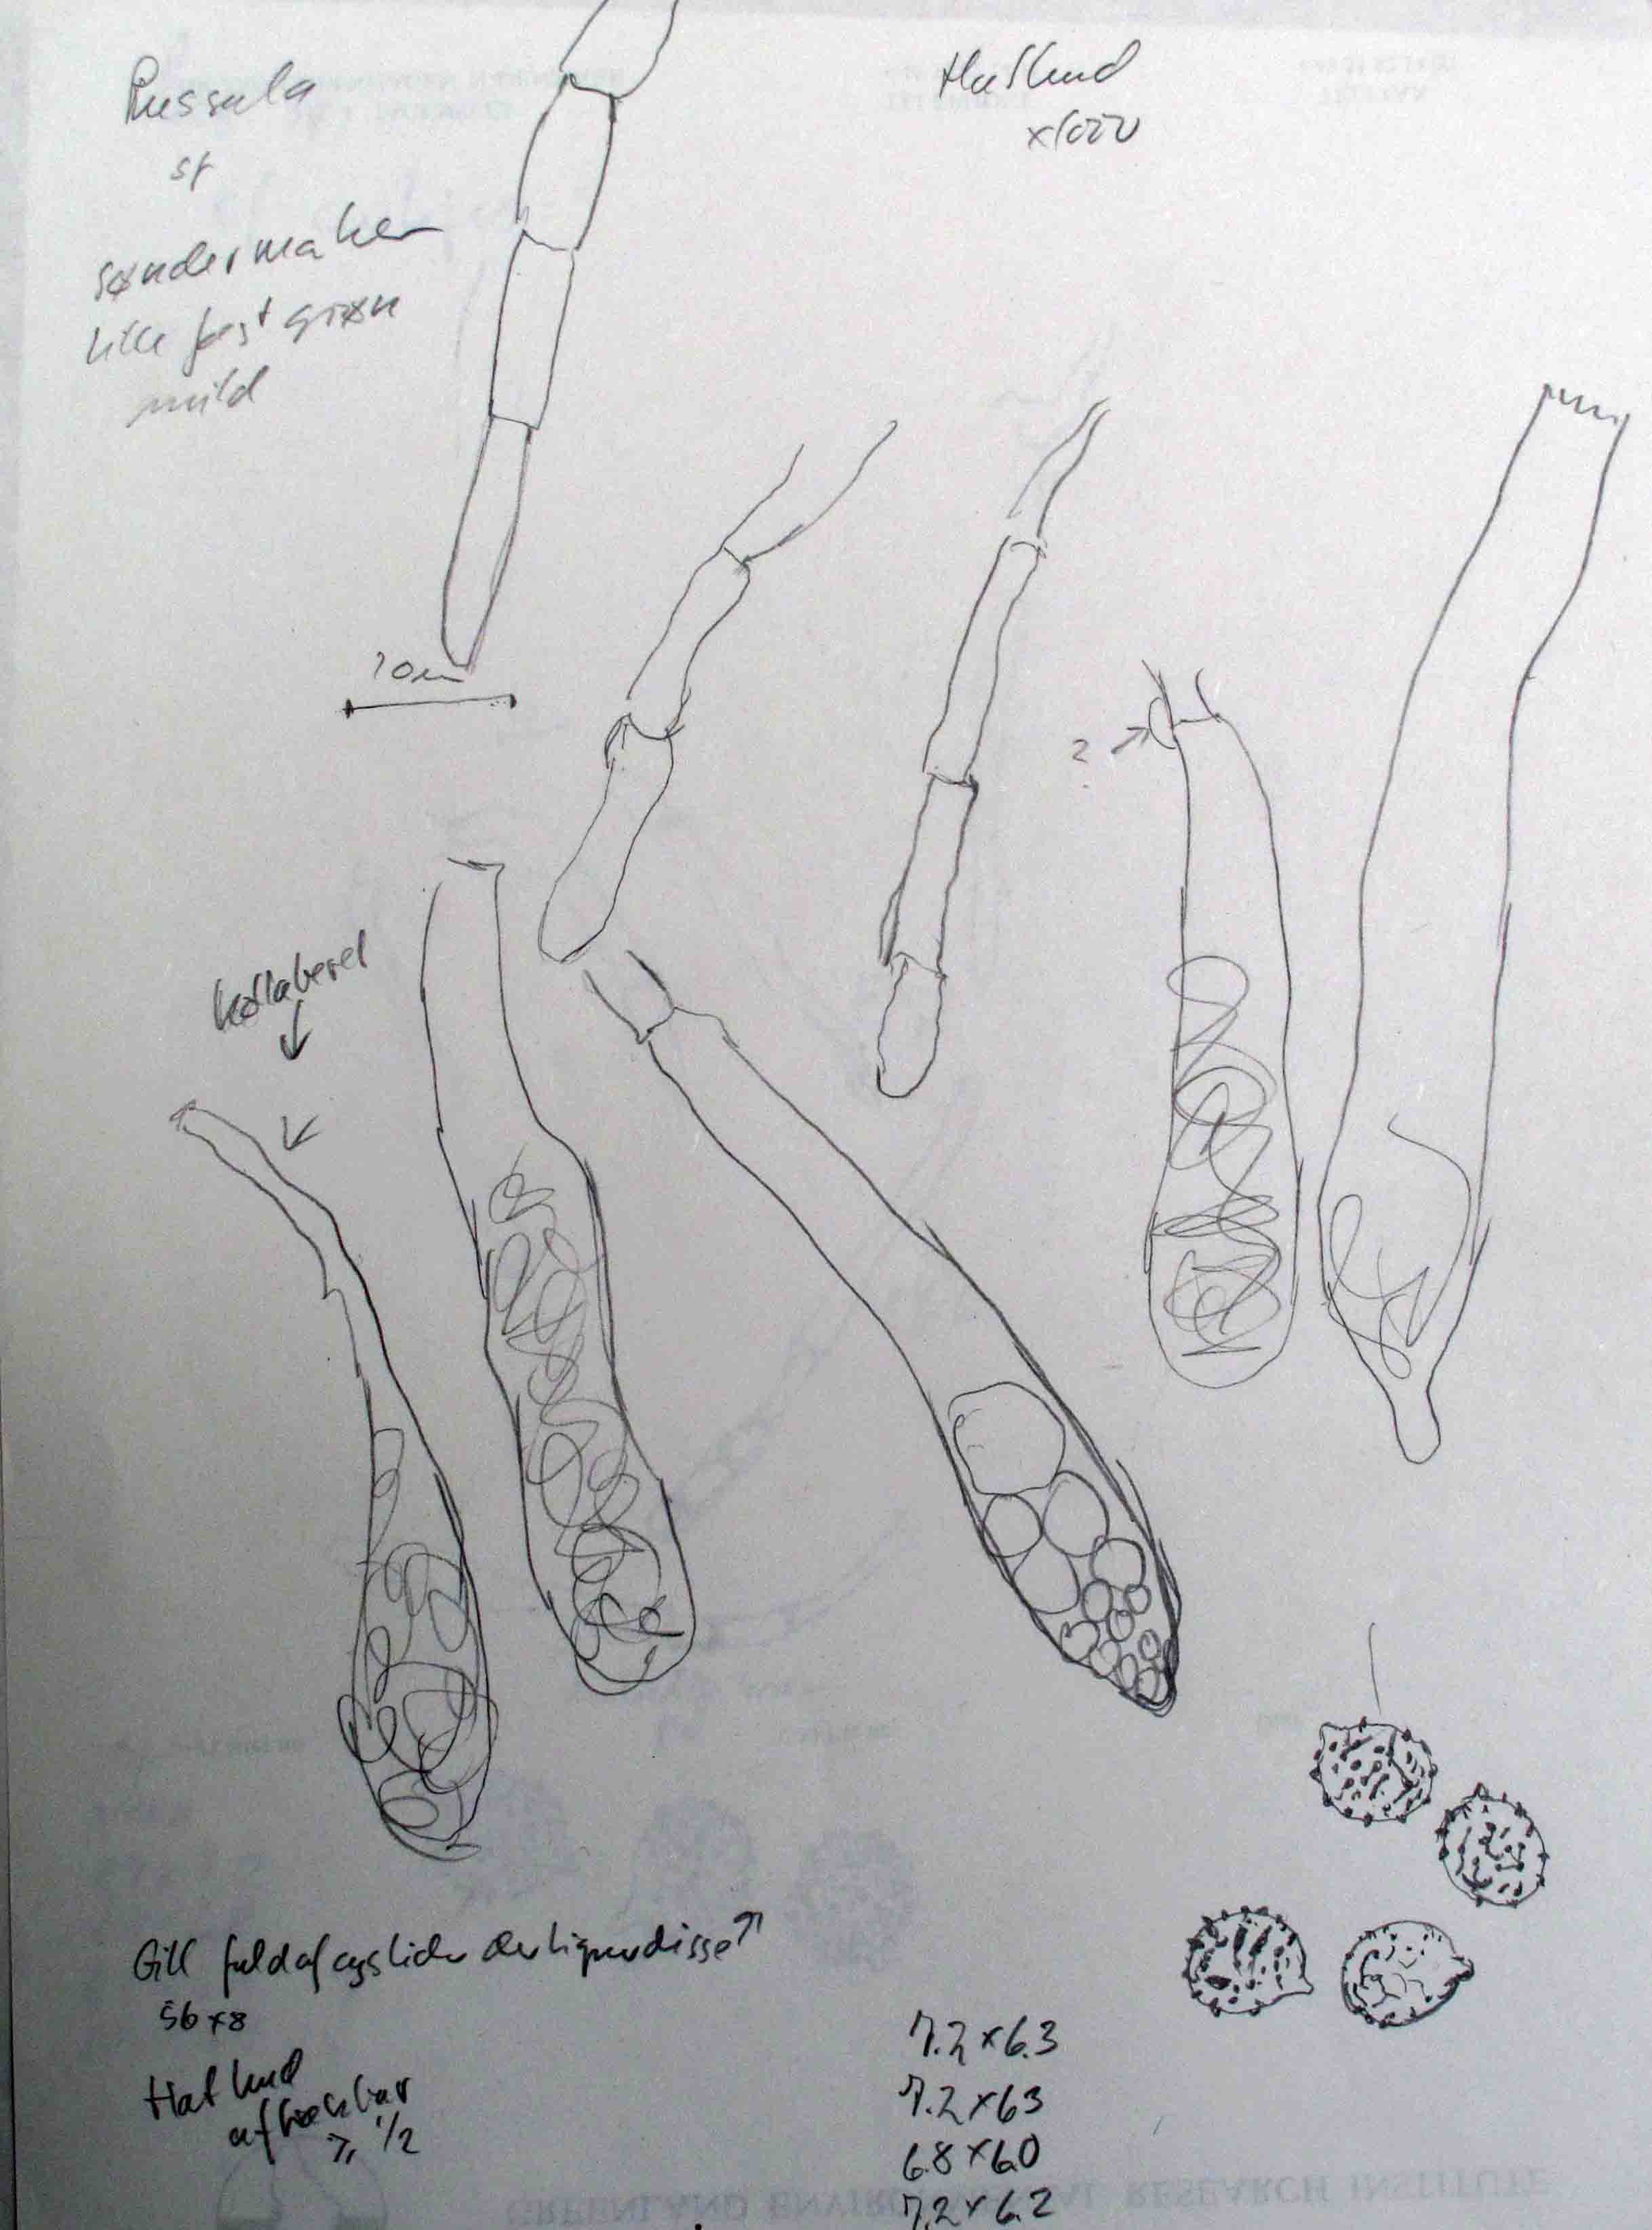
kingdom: Fungi
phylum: Basidiomycota
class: Agaricomycetes
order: Russulales
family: Russulaceae
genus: Russula
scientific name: Russula stenotricha
